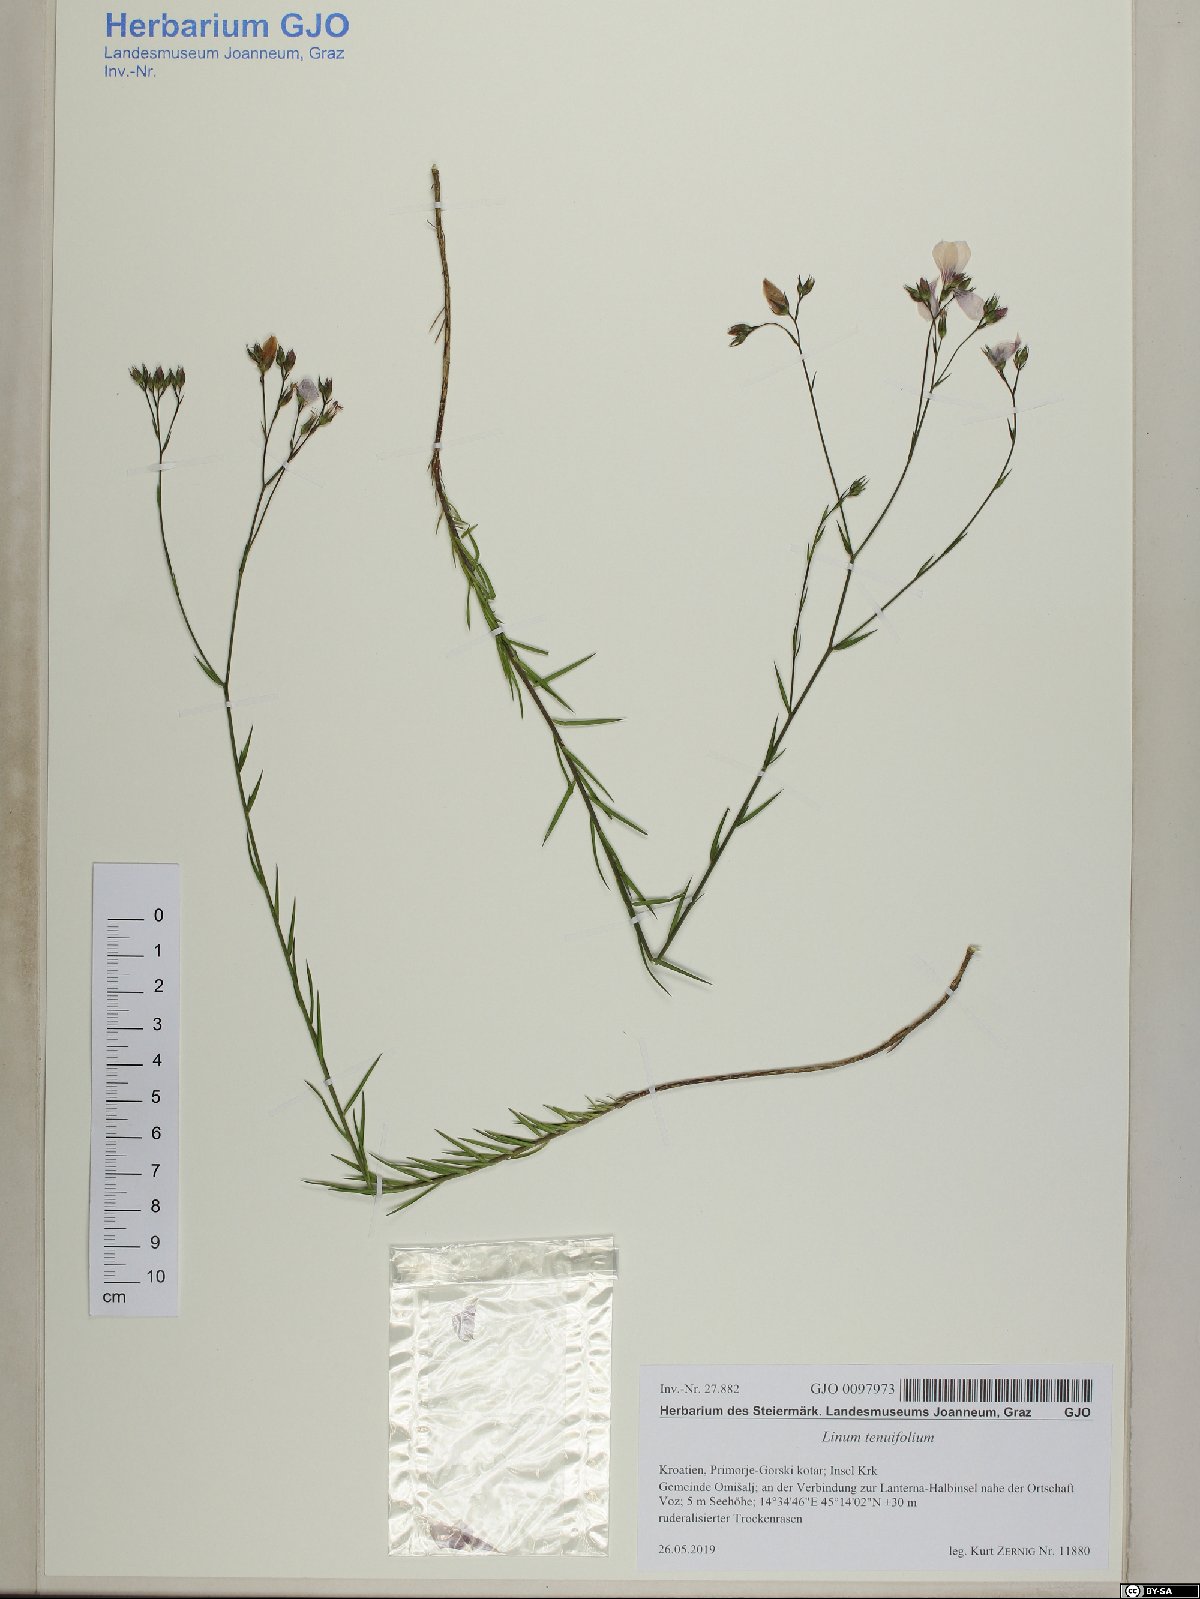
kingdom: Plantae
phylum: Tracheophyta
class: Magnoliopsida
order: Malpighiales
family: Linaceae
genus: Linum
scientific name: Linum tenuifolium
